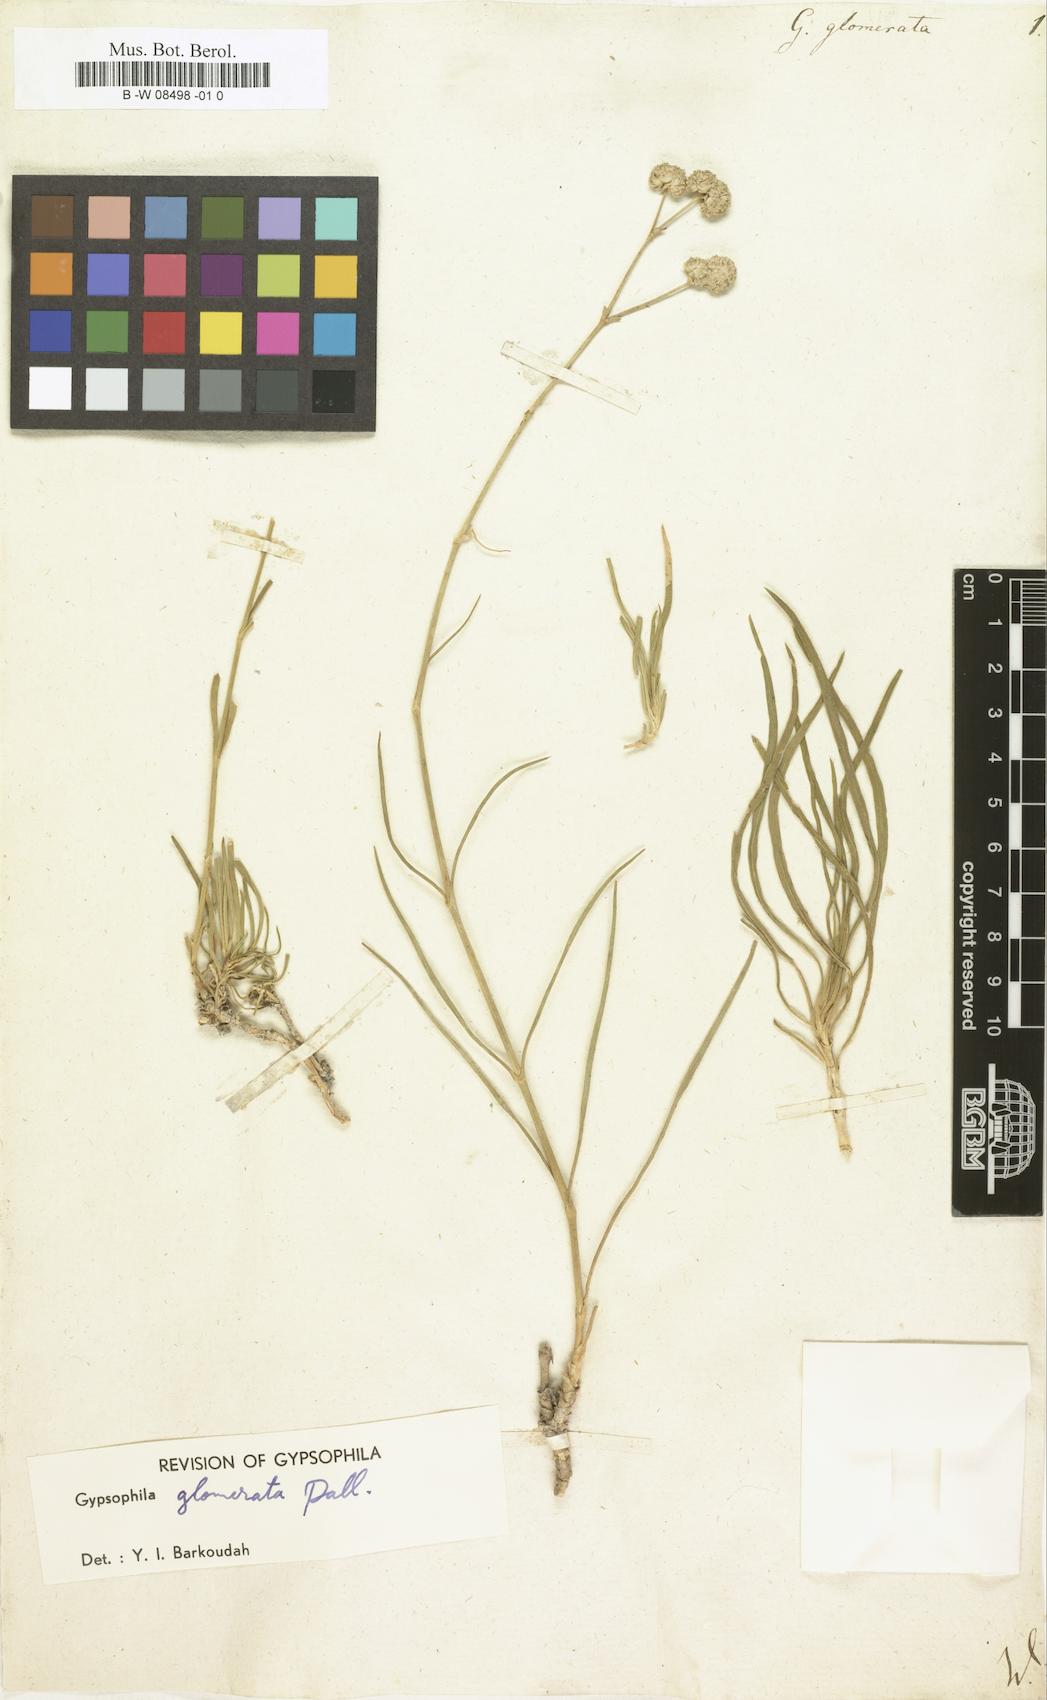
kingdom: Plantae
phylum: Tracheophyta
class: Magnoliopsida
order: Caryophyllales
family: Caryophyllaceae
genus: Gypsophila
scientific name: Gypsophila glomerata
